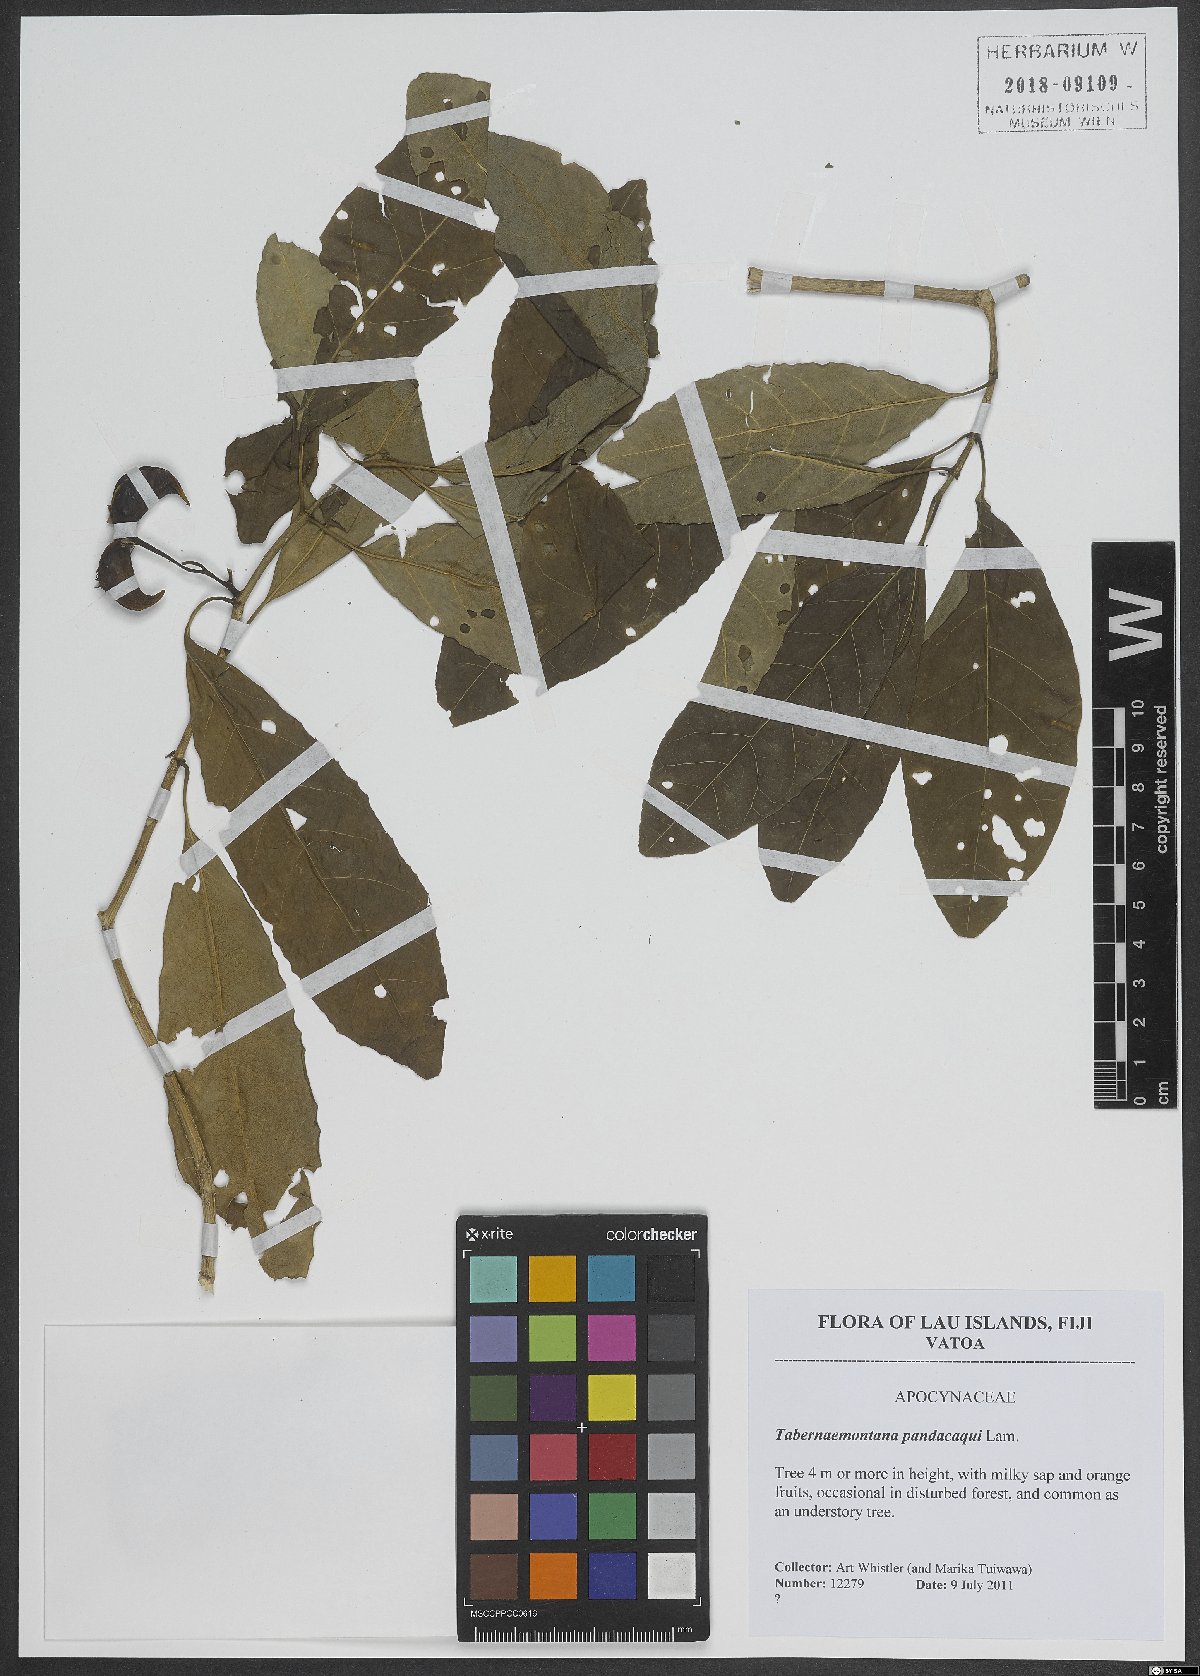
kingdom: Plantae
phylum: Tracheophyta
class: Magnoliopsida
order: Gentianales
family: Apocynaceae
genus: Tabernaemontana
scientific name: Tabernaemontana pandacaqui
